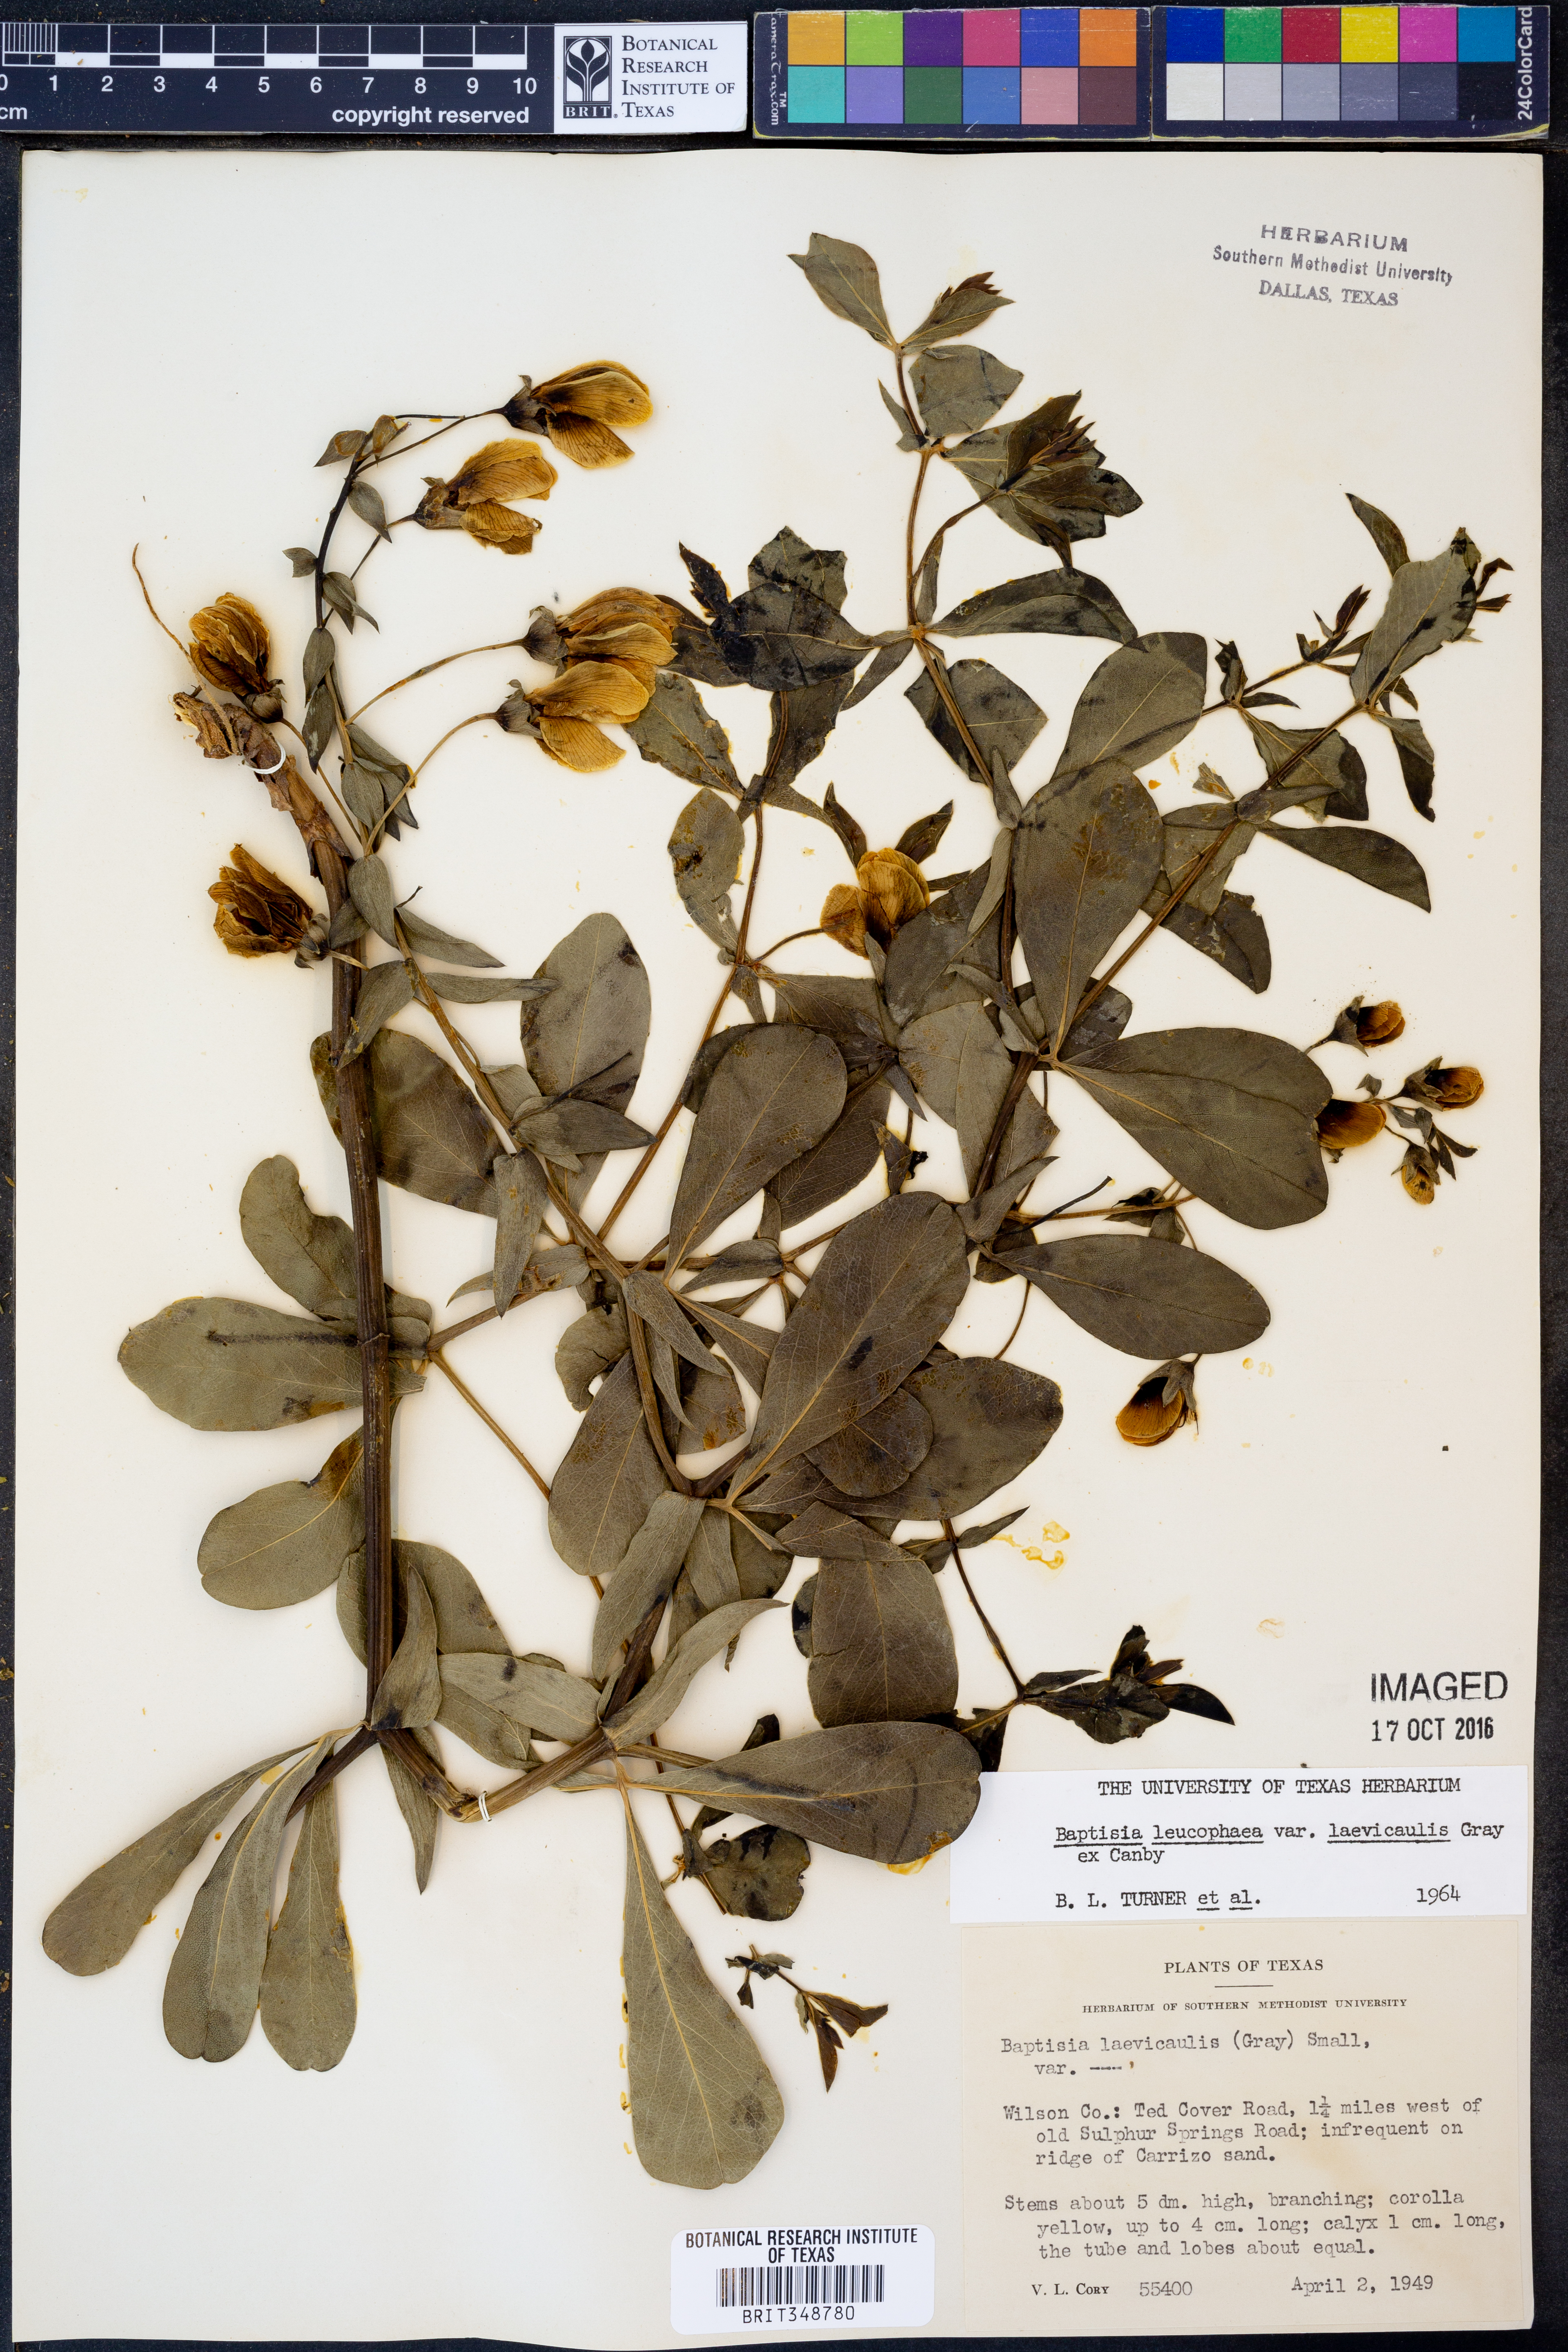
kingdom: Plantae
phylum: Tracheophyta
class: Magnoliopsida
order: Fabales
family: Fabaceae
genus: Baptisia
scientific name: Baptisia bracteata
